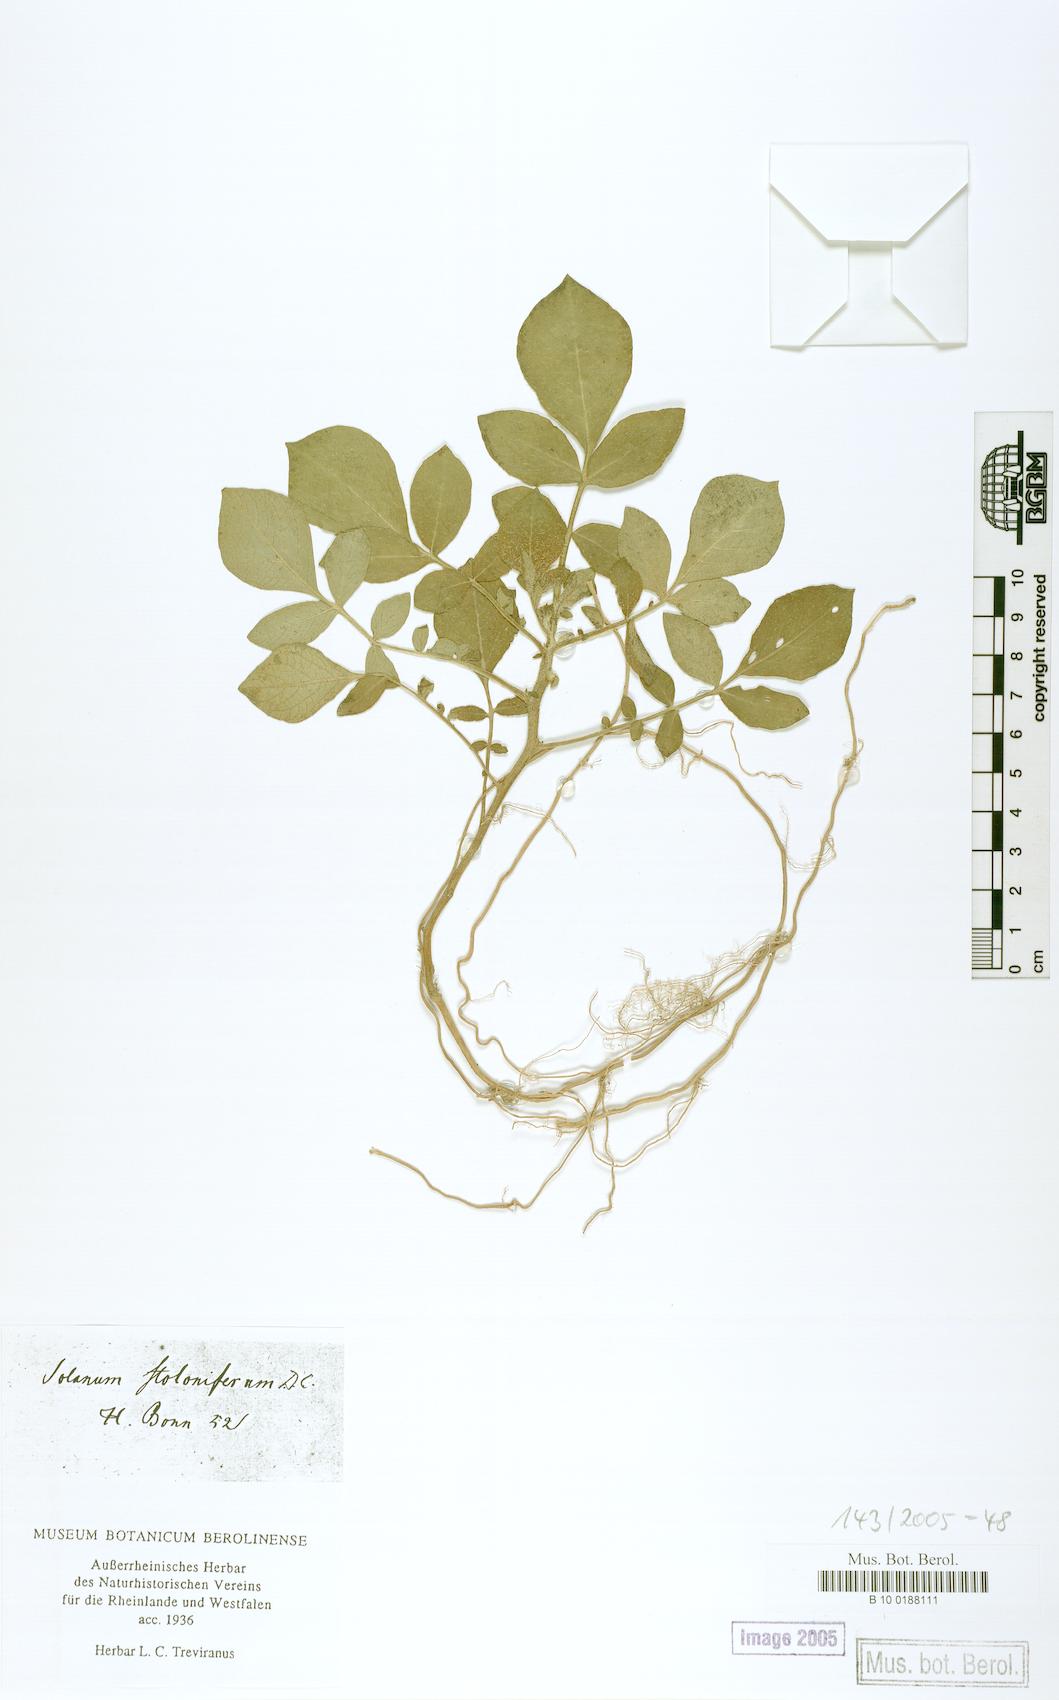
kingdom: Plantae
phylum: Tracheophyta
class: Magnoliopsida
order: Solanales
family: Solanaceae
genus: Solanum
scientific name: Solanum stoloniferum
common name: Fendler's nighshade
